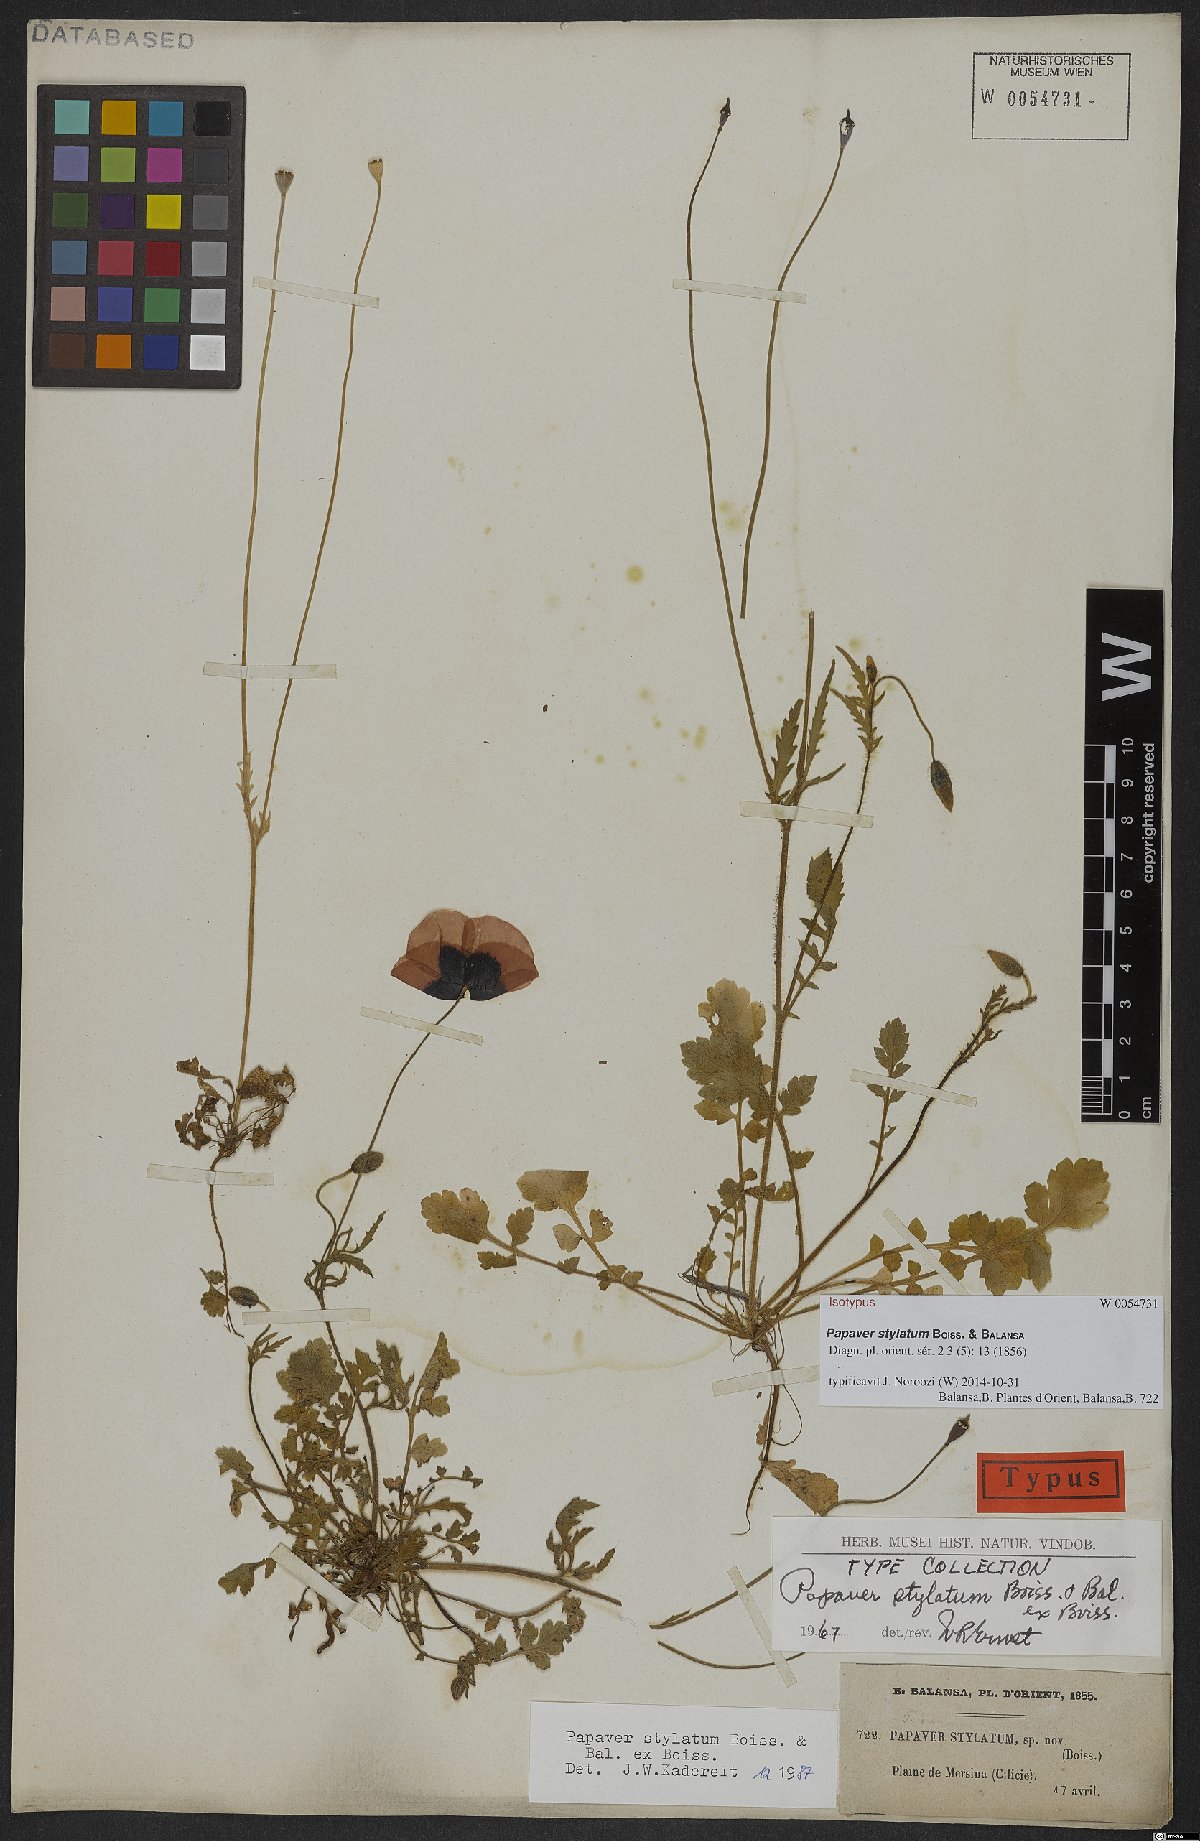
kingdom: Plantae
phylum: Tracheophyta
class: Magnoliopsida
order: Ranunculales
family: Papaveraceae
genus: Papaver
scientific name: Papaver umbonatum
